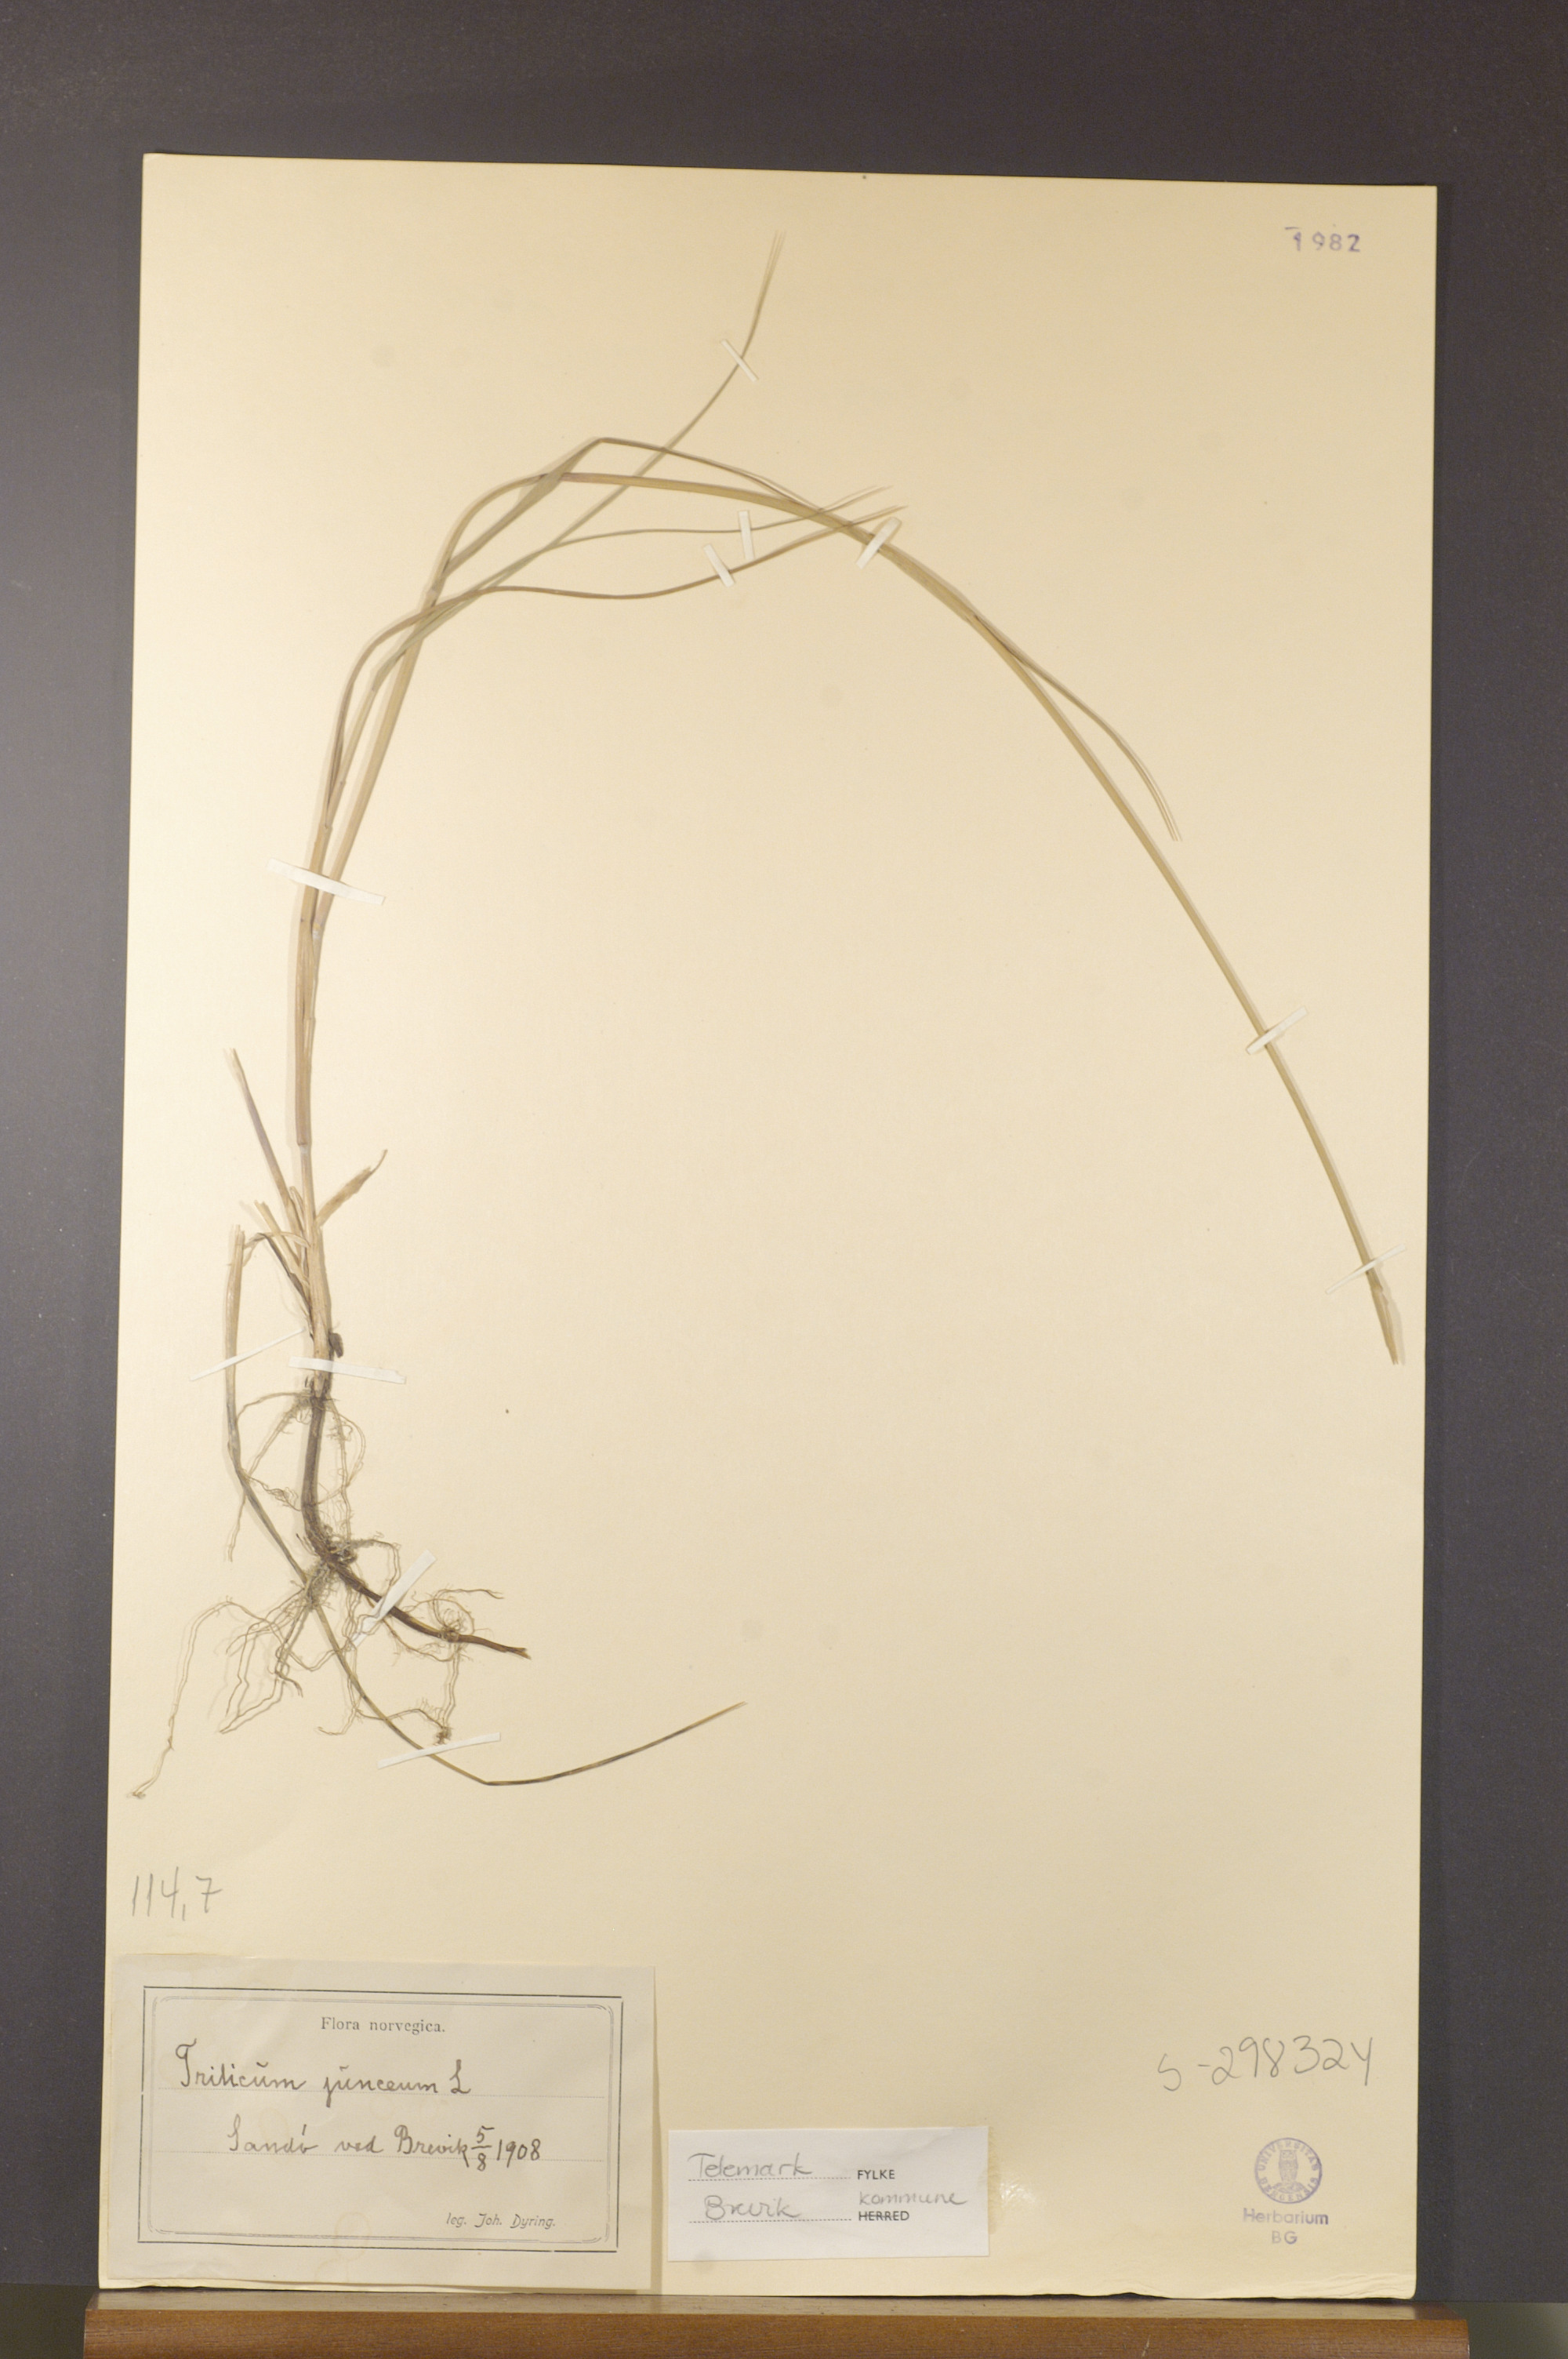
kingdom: Plantae
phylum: Tracheophyta
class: Liliopsida
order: Poales
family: Poaceae
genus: Thinopyrum
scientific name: Thinopyrum junceum
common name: Russian wheatgrass
